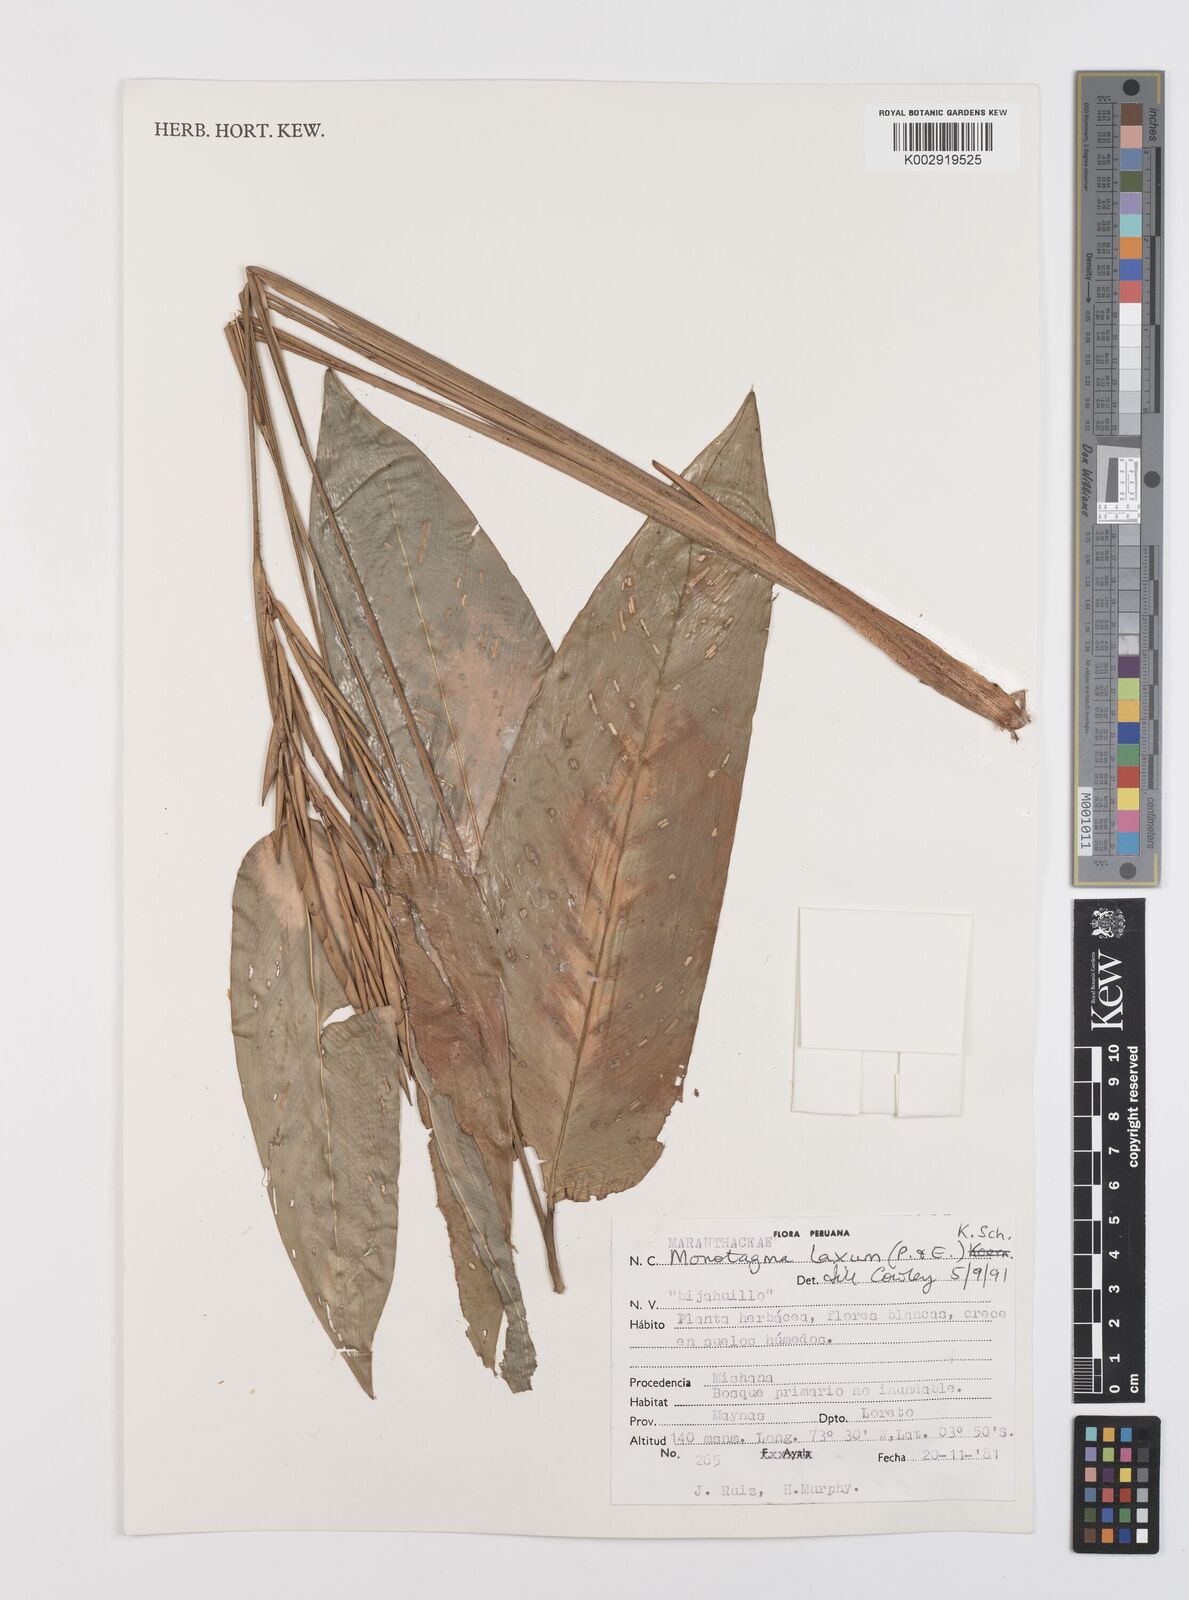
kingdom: Plantae
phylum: Tracheophyta
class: Liliopsida
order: Zingiberales
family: Marantaceae
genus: Monotagma
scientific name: Monotagma laxum
